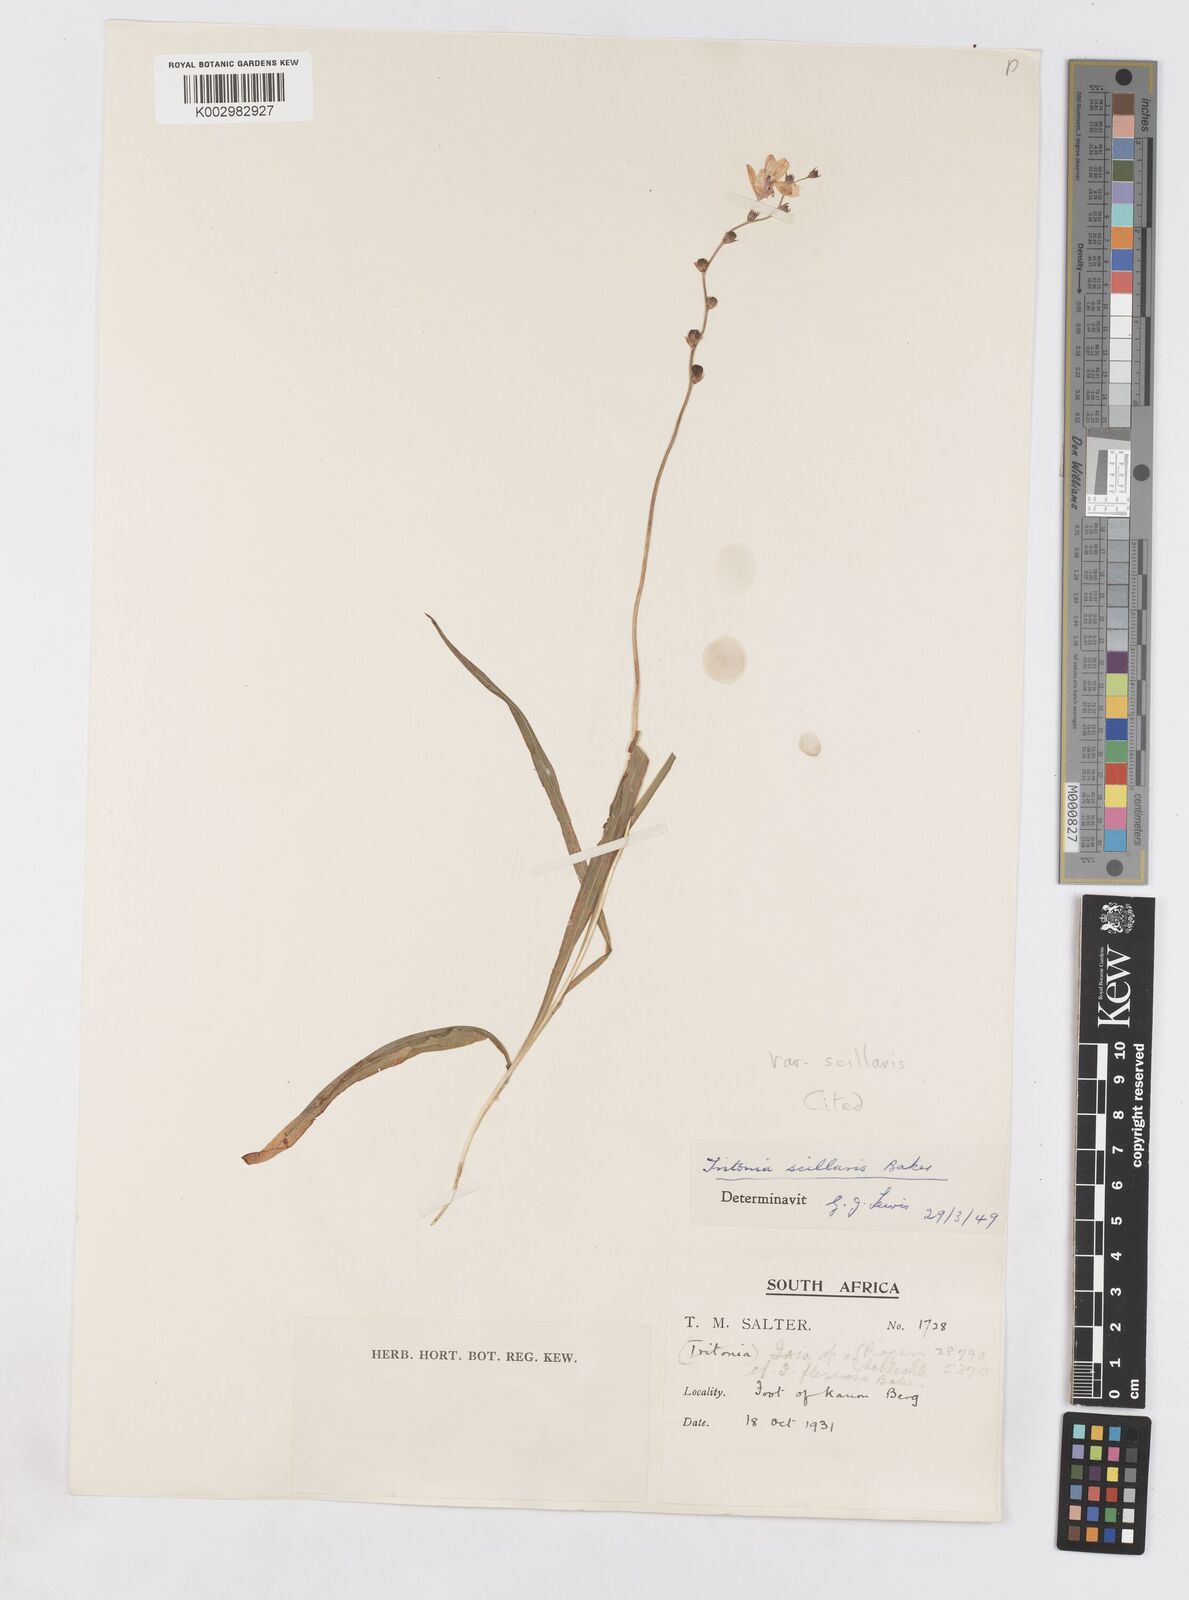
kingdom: Plantae
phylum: Tracheophyta
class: Liliopsida
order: Asparagales
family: Iridaceae
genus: Ixia
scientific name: Ixia scillaris
